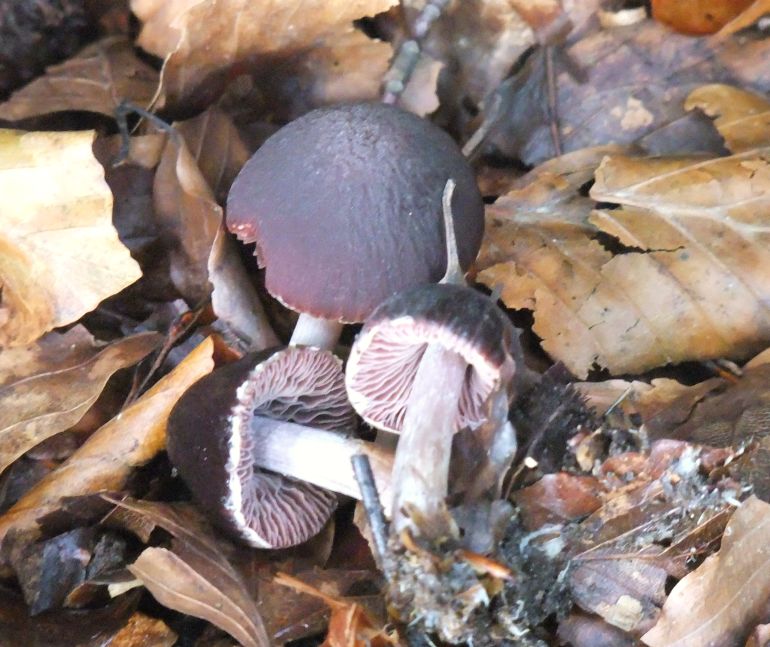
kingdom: Fungi
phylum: Basidiomycota
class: Agaricomycetes
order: Agaricales
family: Psathyrellaceae
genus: Psathyrella
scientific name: Psathyrella bipellis
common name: vinrød mørkhat
